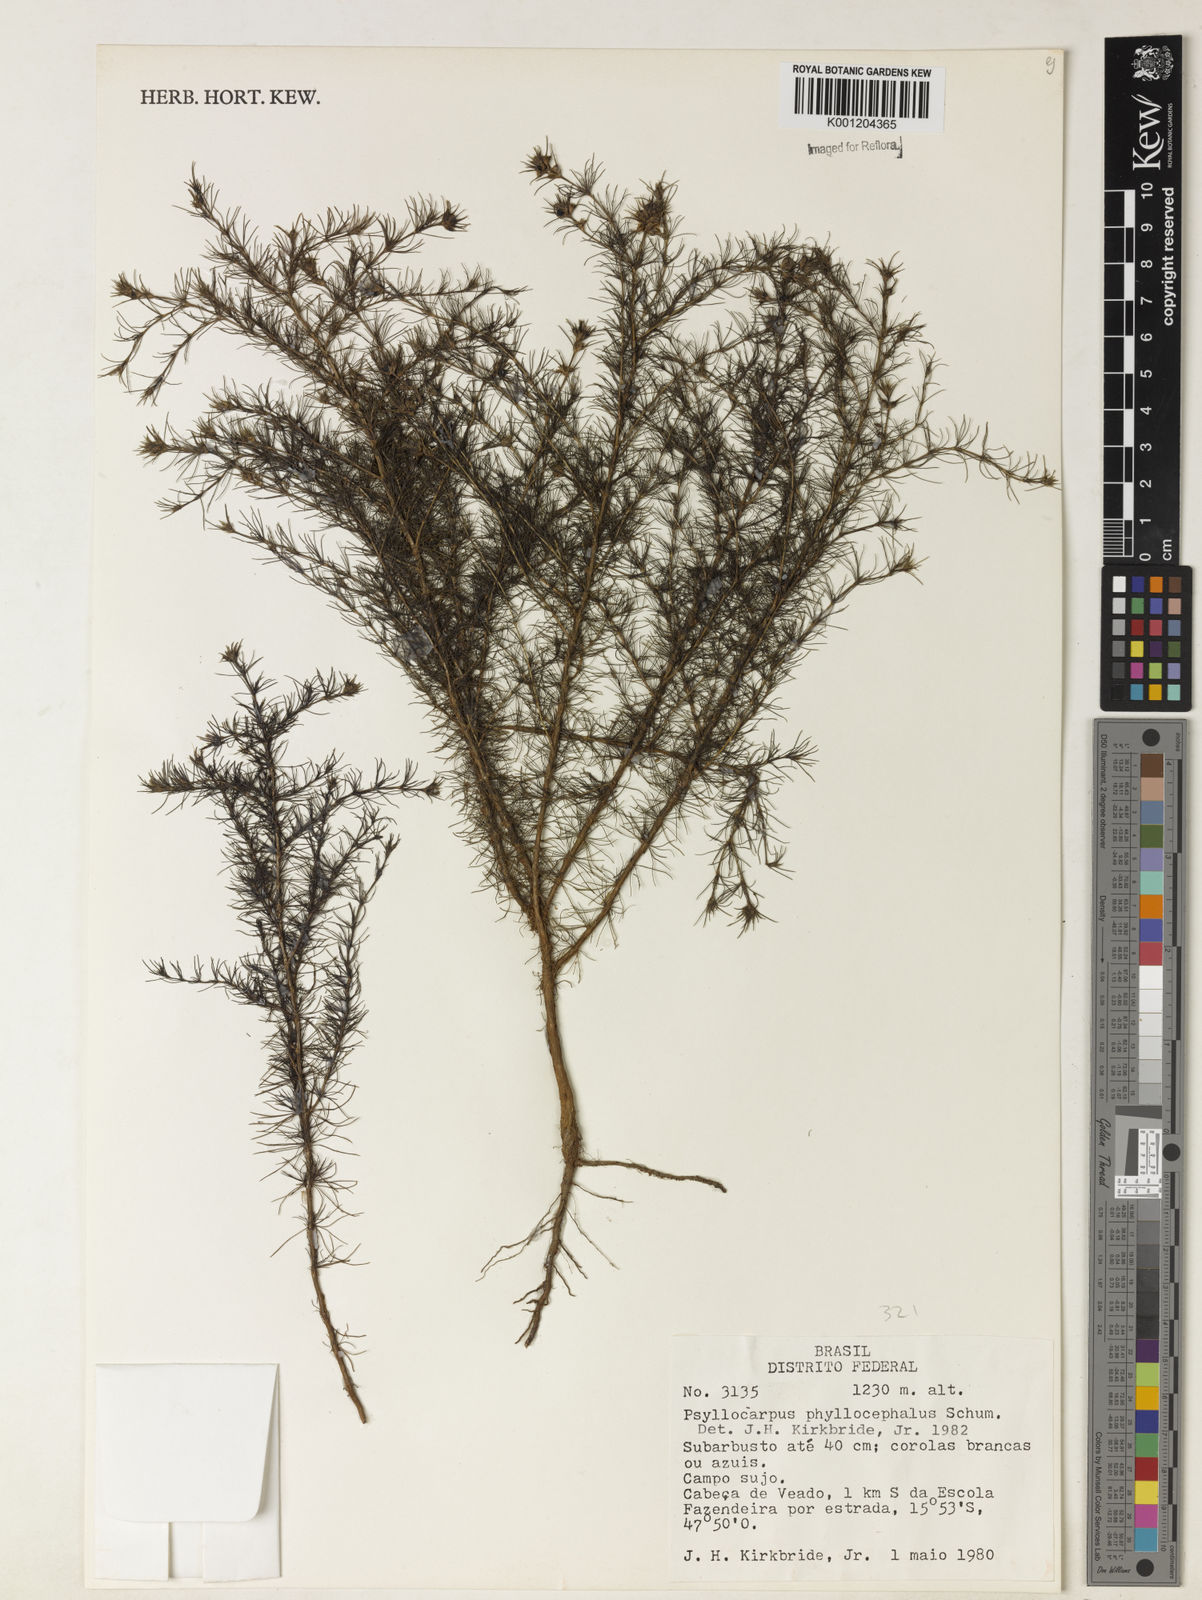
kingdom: Plantae
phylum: Tracheophyta
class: Magnoliopsida
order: Gentianales
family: Rubiaceae
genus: Psyllocarpus
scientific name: Psyllocarpus phyllocephalus
